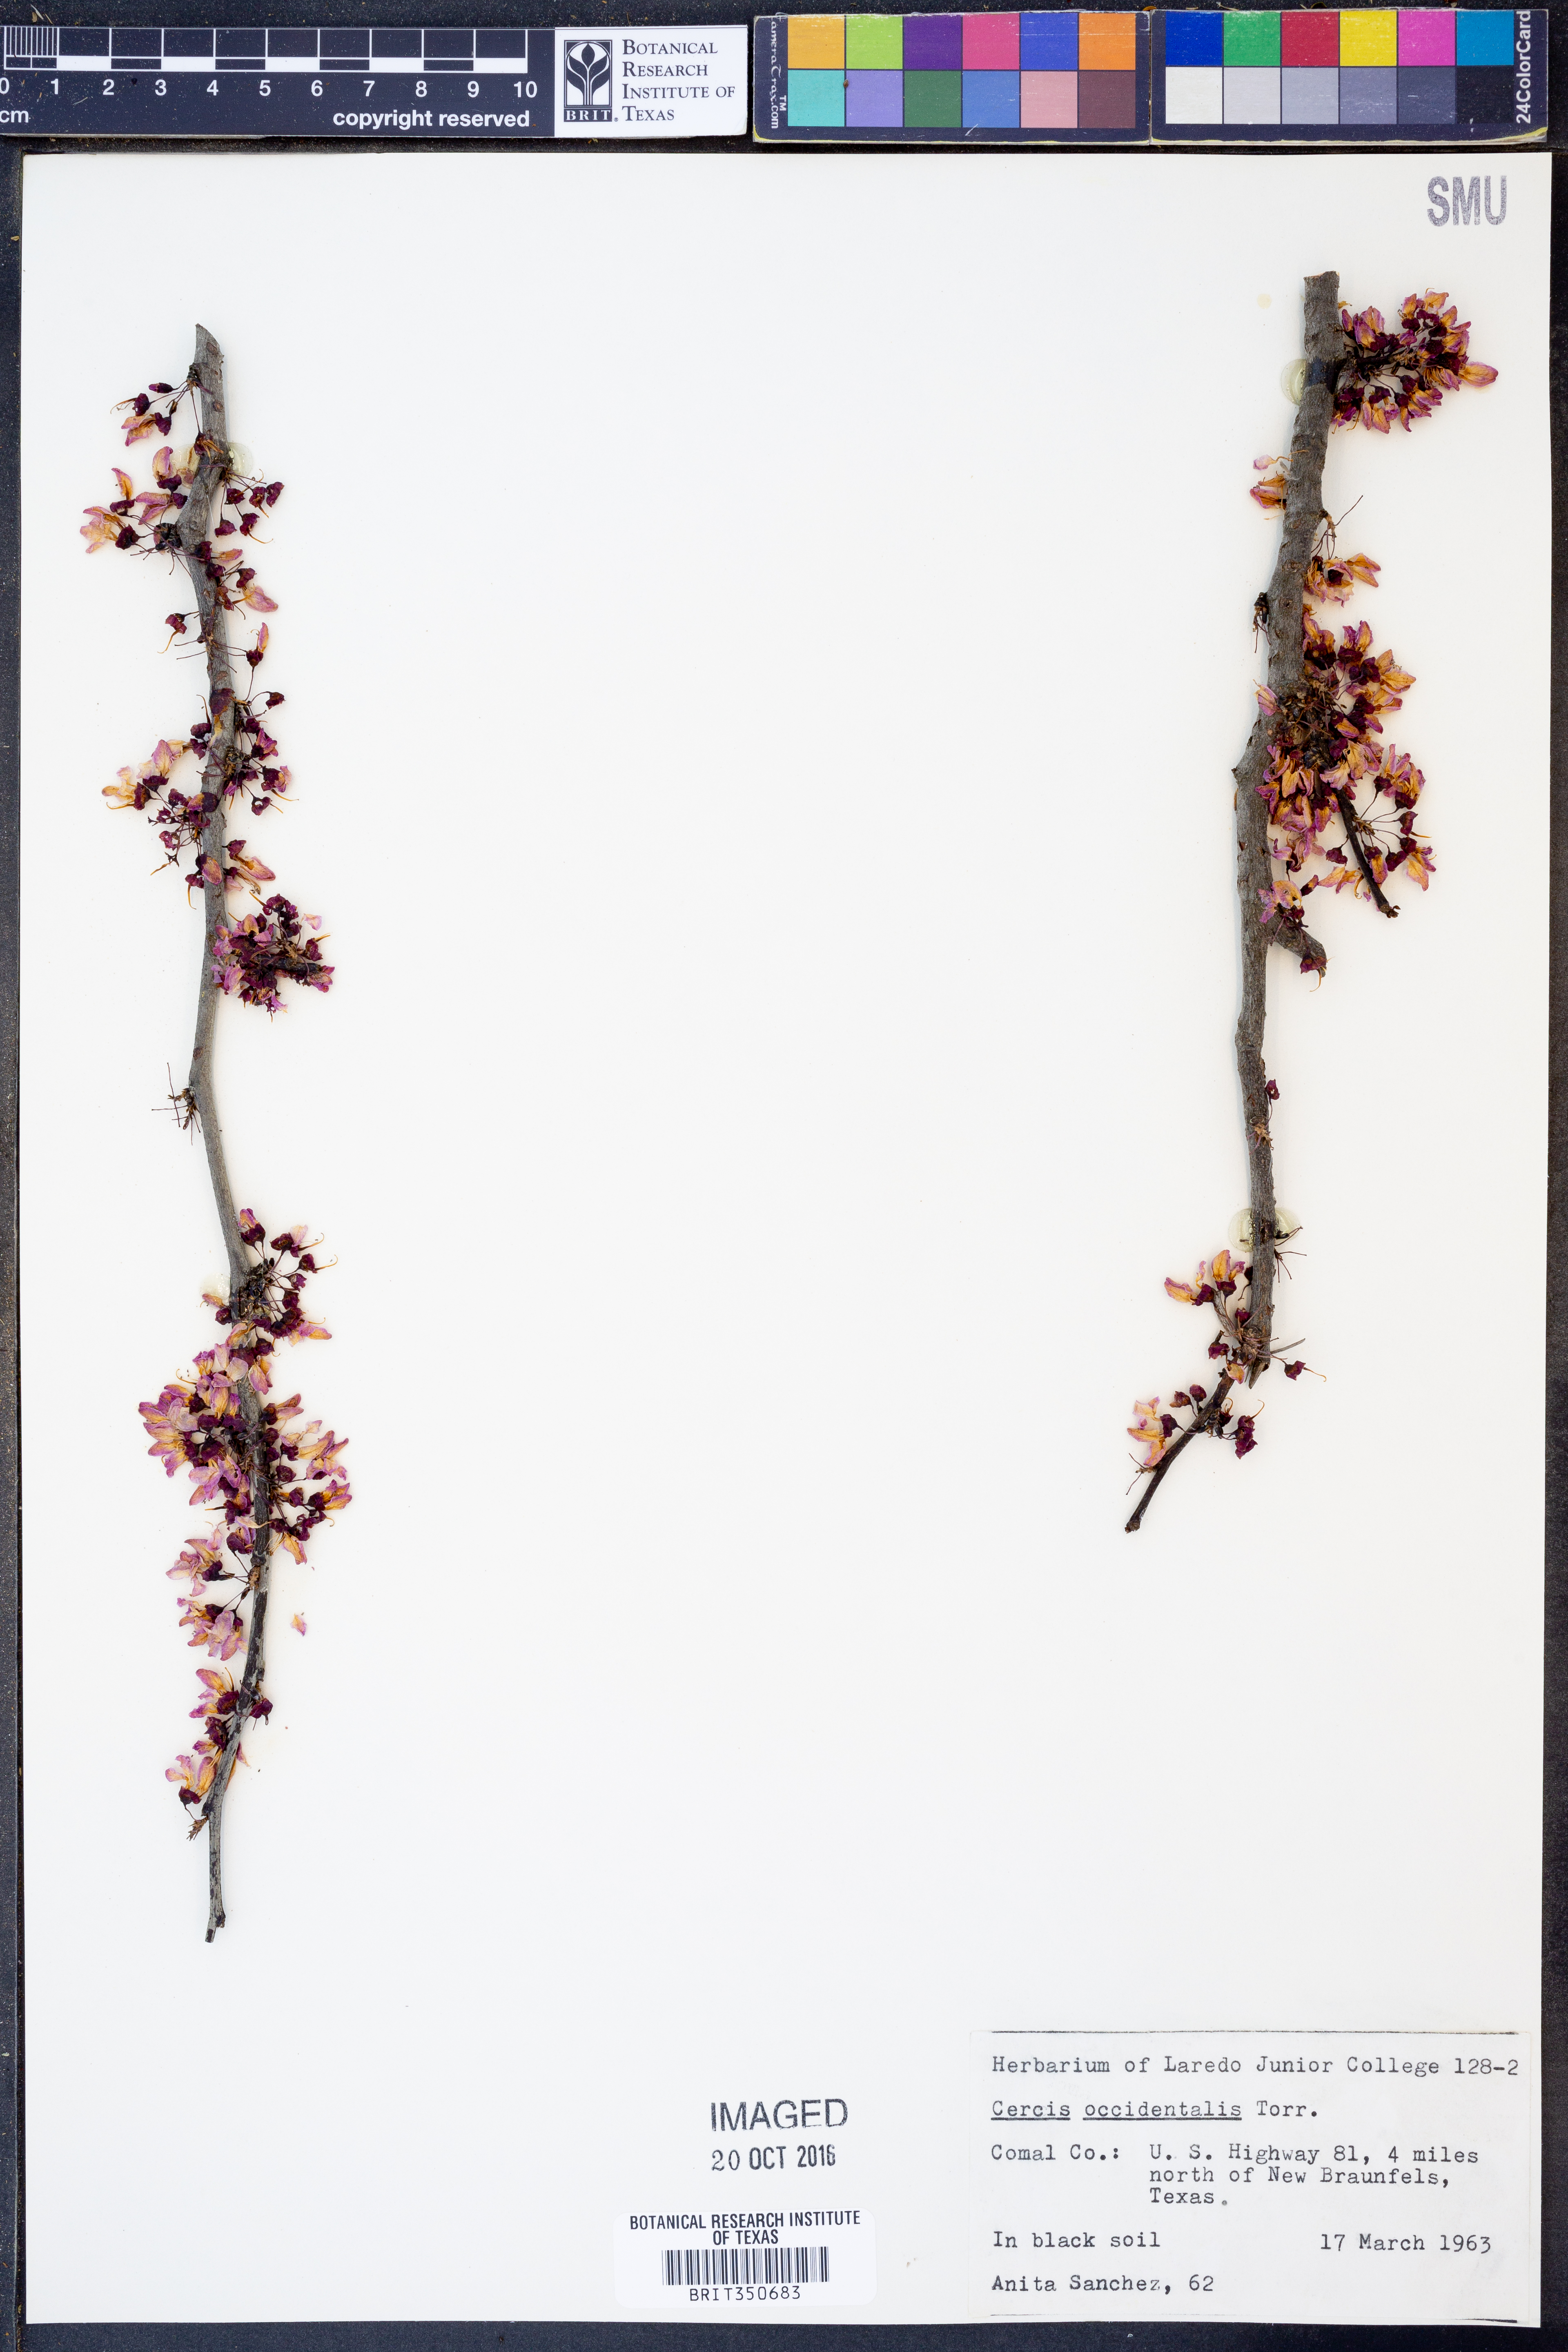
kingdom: Plantae
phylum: Tracheophyta
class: Magnoliopsida
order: Fabales
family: Fabaceae
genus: Cercis
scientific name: Cercis occidentalis
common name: California redbud
